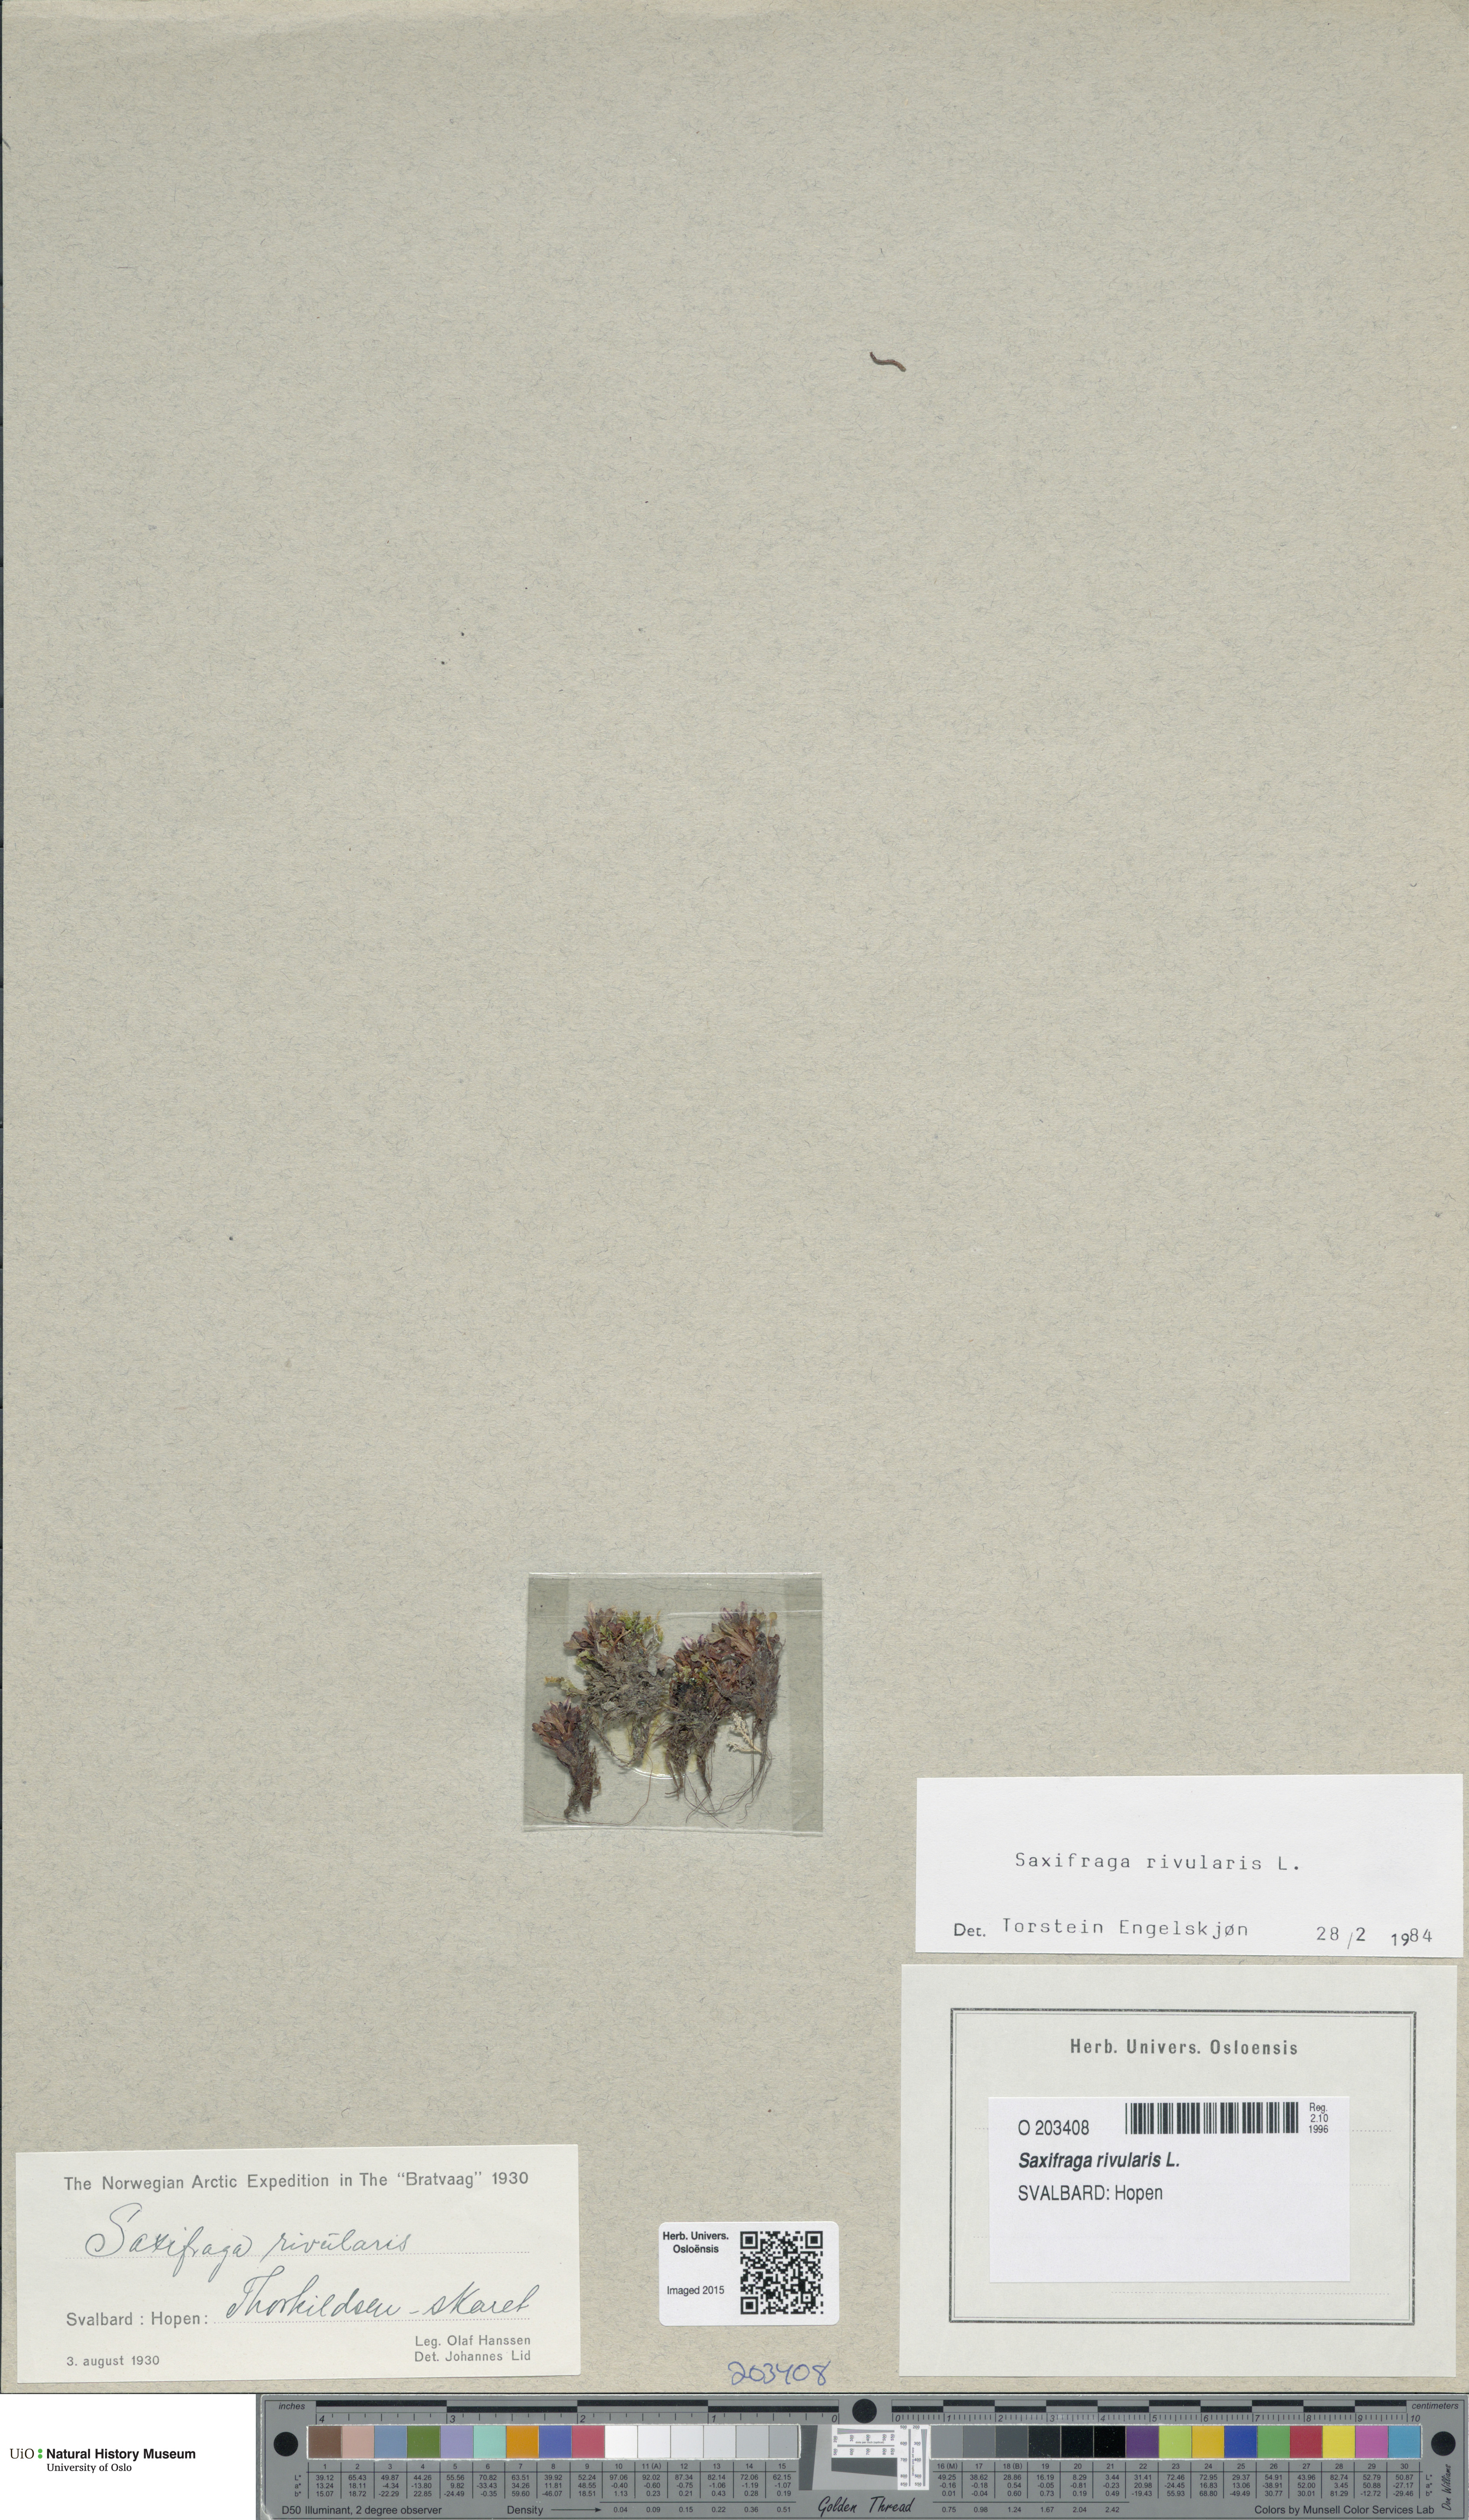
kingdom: Plantae
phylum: Tracheophyta
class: Magnoliopsida
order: Saxifragales
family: Saxifragaceae
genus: Saxifraga
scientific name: Saxifraga rivularis
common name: Highland saxifrage
